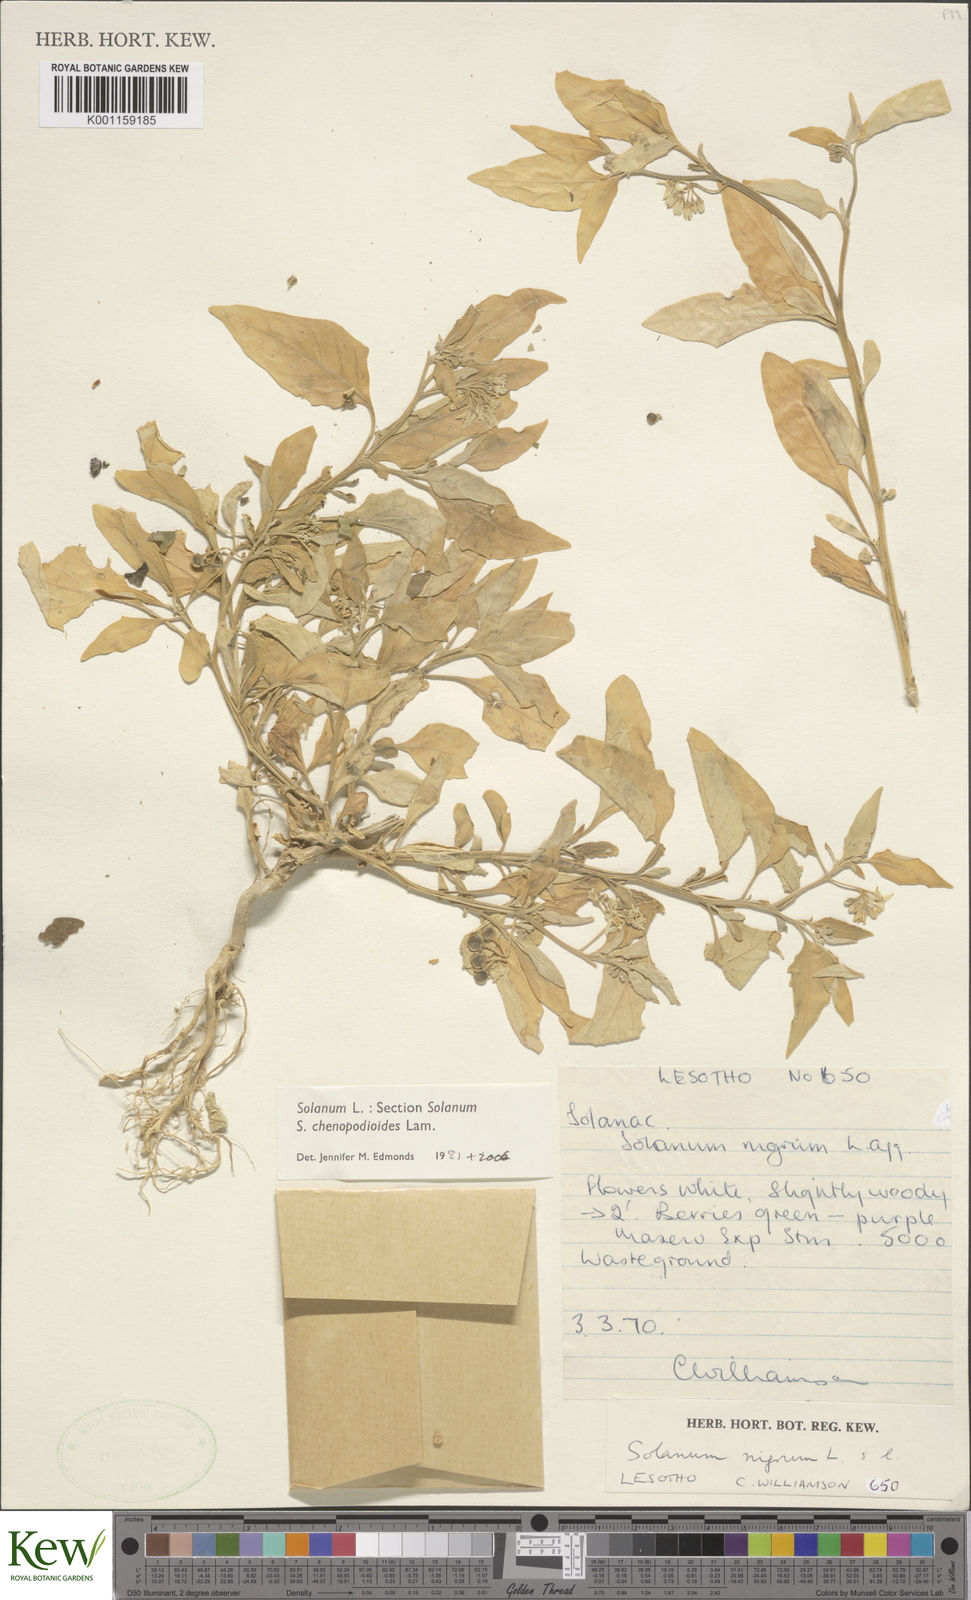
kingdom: Plantae
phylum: Tracheophyta
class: Magnoliopsida
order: Solanales
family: Solanaceae
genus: Solanum
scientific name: Solanum chenopodioides
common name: Tall nightshade
